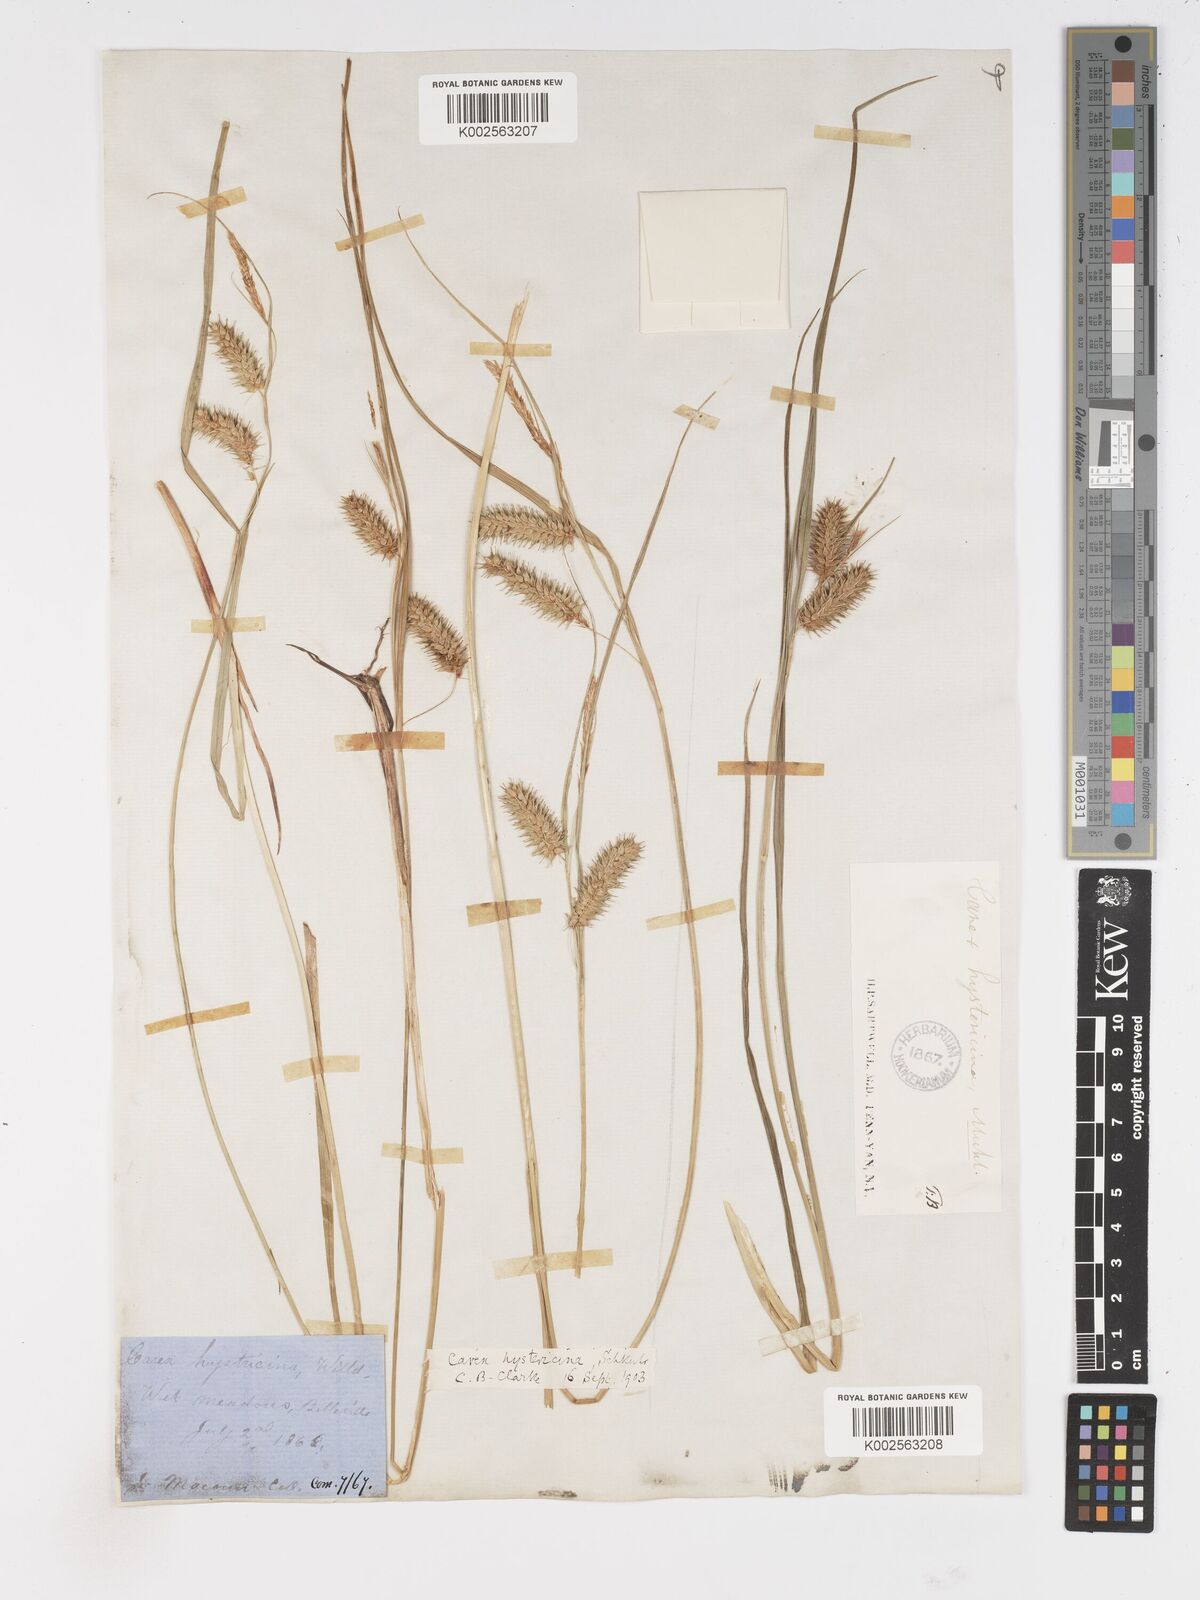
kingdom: Plantae
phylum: Tracheophyta
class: Liliopsida
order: Poales
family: Cyperaceae
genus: Carex
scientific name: Carex hystericina
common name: Bottlebrush sedge
